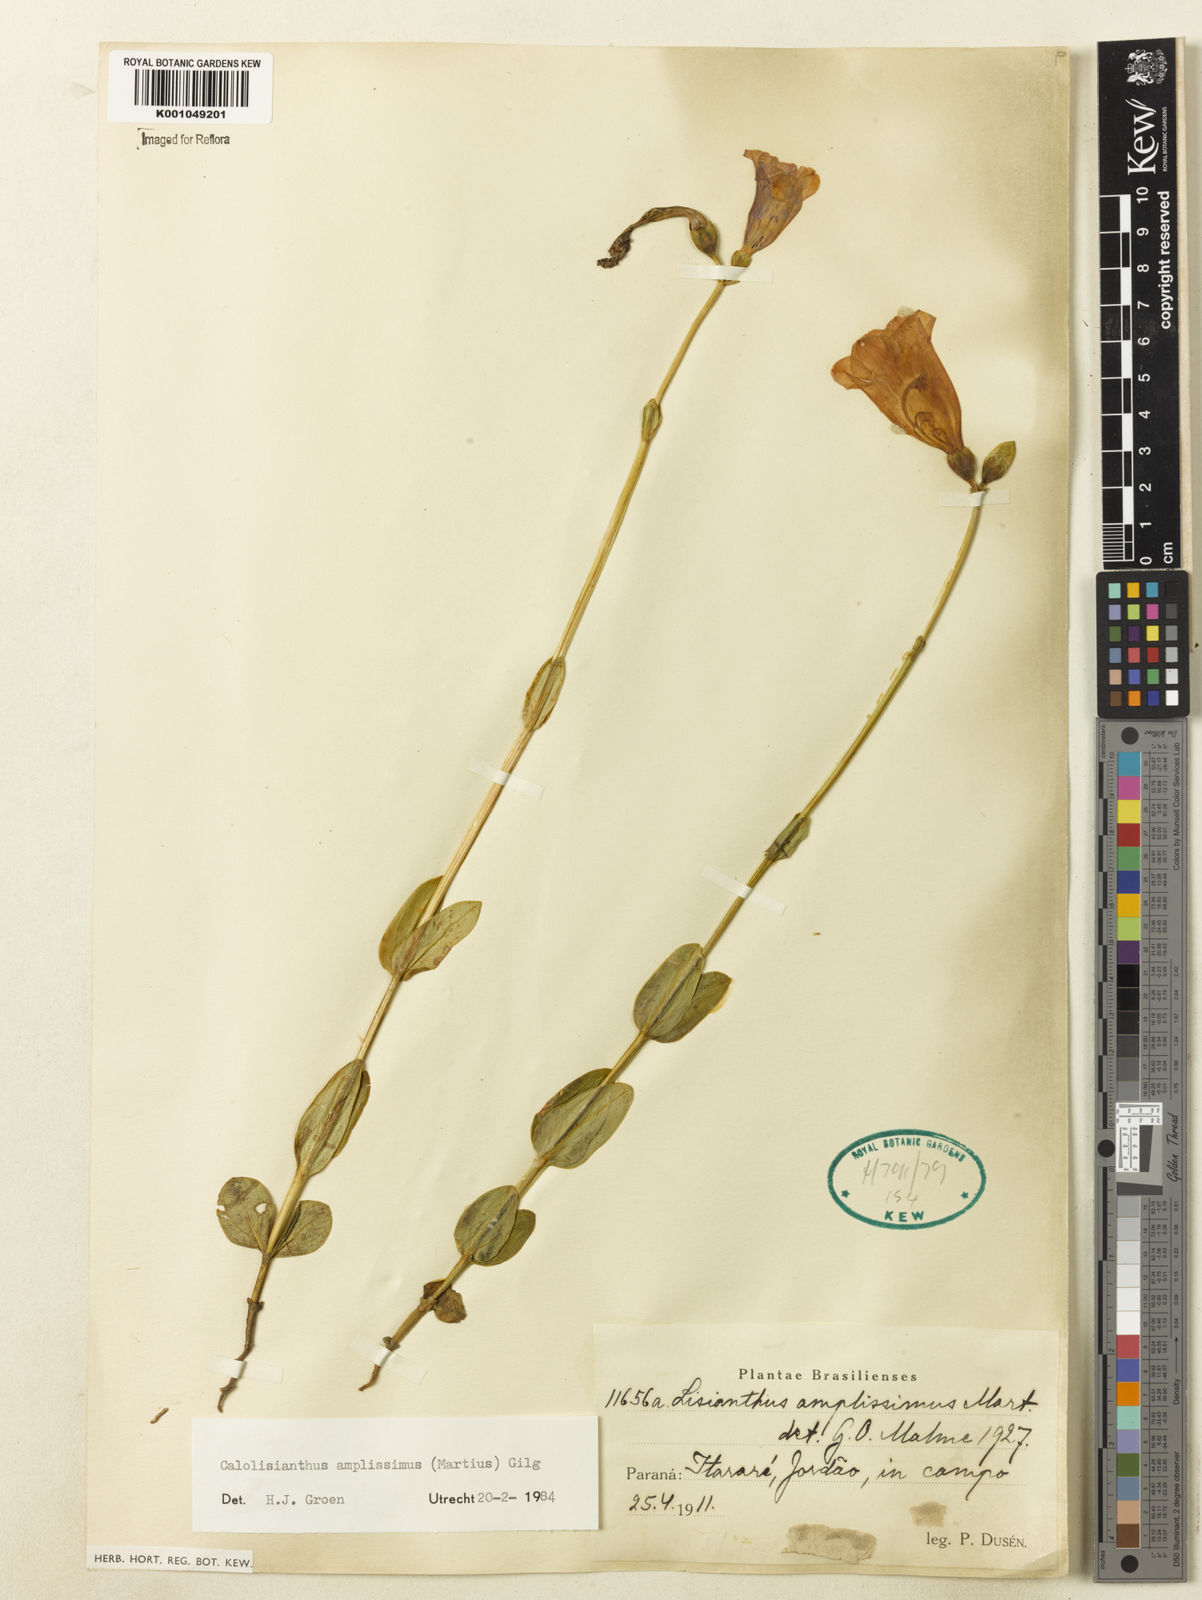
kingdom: Plantae
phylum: Tracheophyta
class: Magnoliopsida
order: Gentianales
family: Gentianaceae
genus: Calolisianthus
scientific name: Calolisianthus amplissimus
